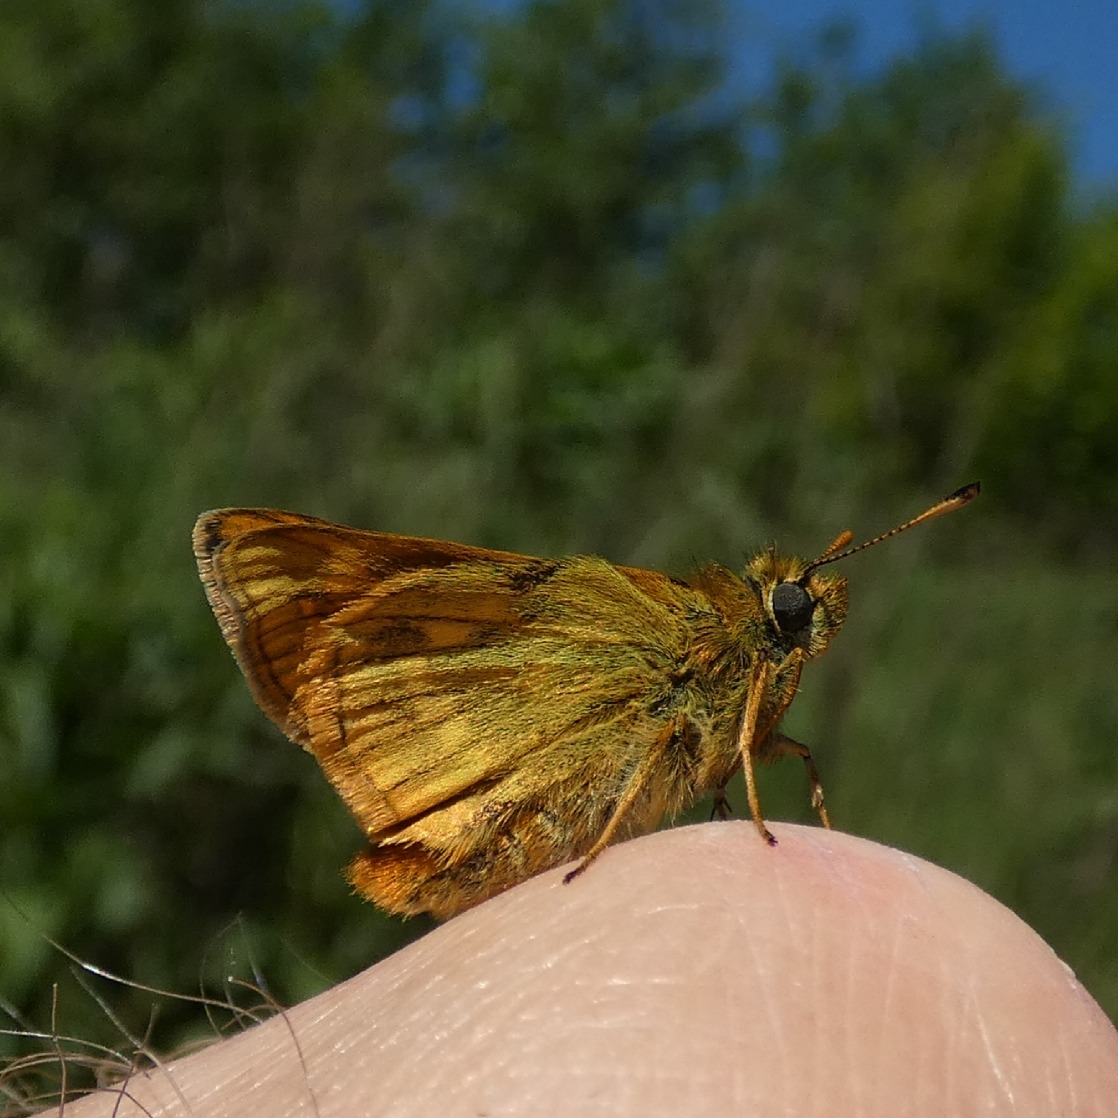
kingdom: Animalia
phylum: Arthropoda
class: Insecta
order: Lepidoptera
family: Hesperiidae
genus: Ochlodes
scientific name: Ochlodes venata
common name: Stor bredpande
